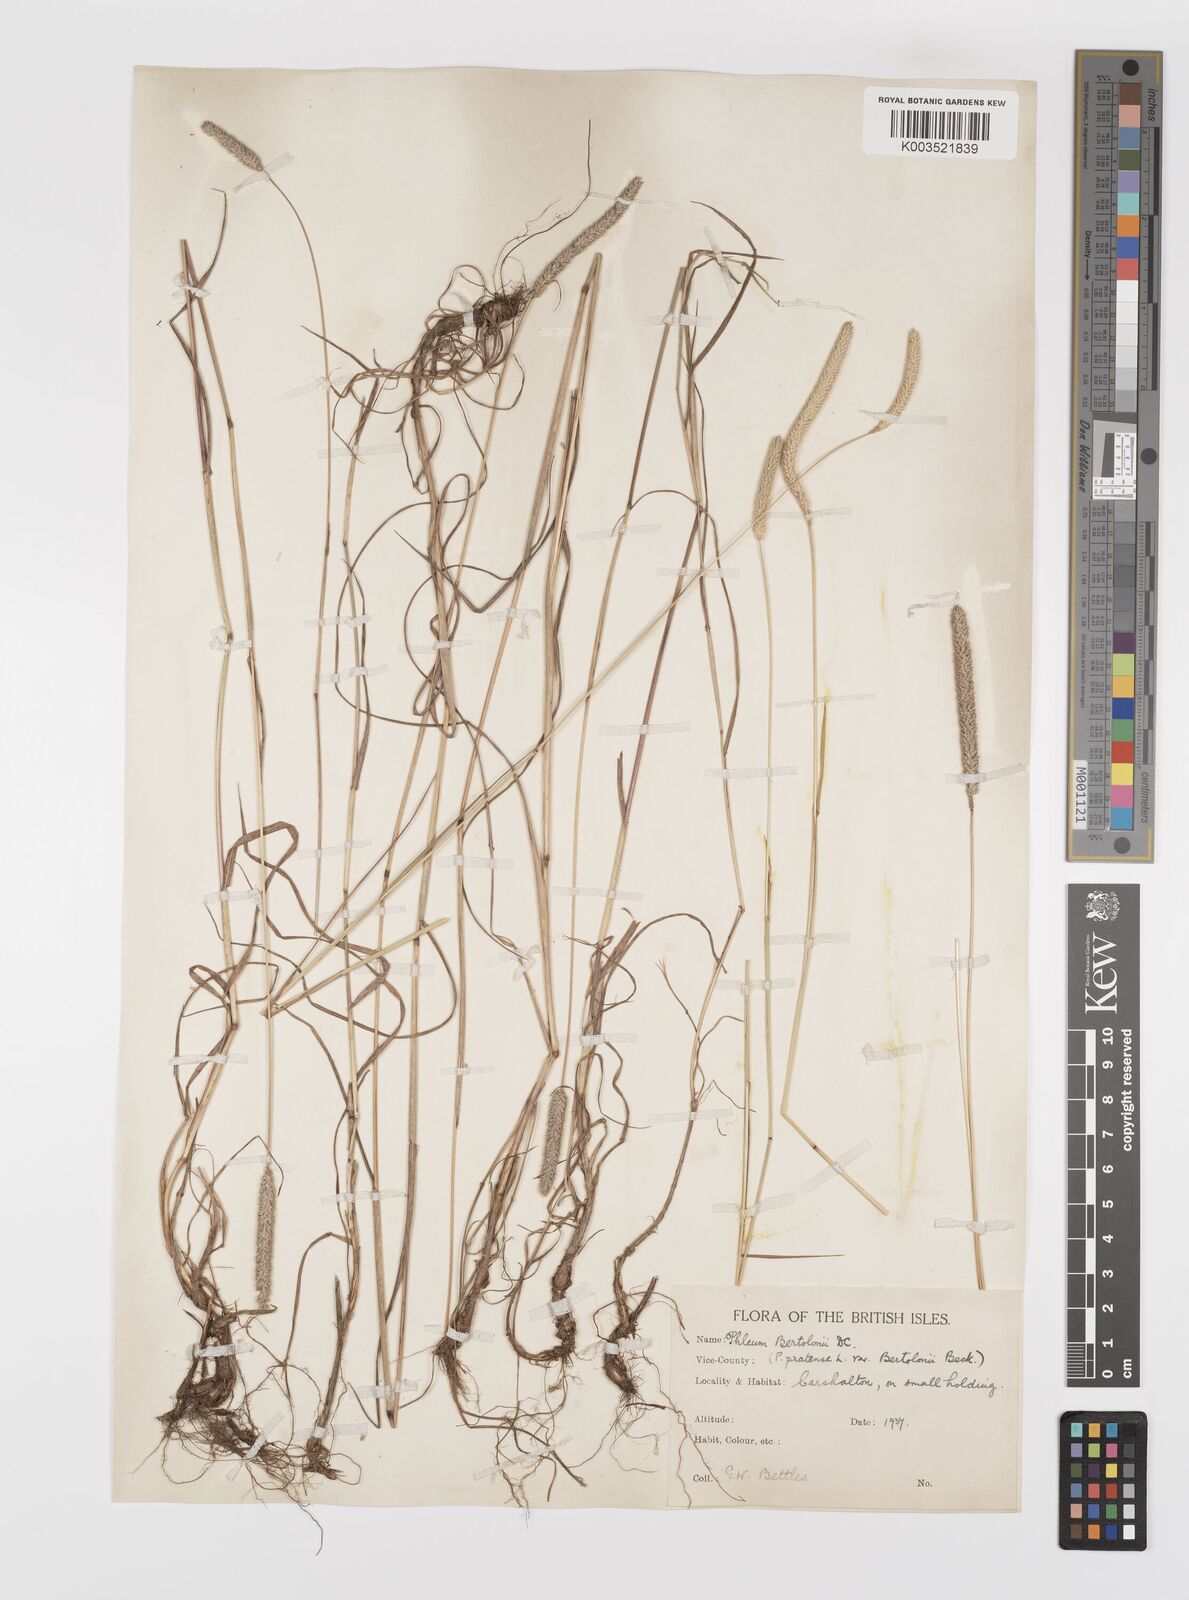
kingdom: Plantae
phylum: Tracheophyta
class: Liliopsida
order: Poales
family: Poaceae
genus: Phleum
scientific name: Phleum bertolonii
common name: Smaller cat's-tail
